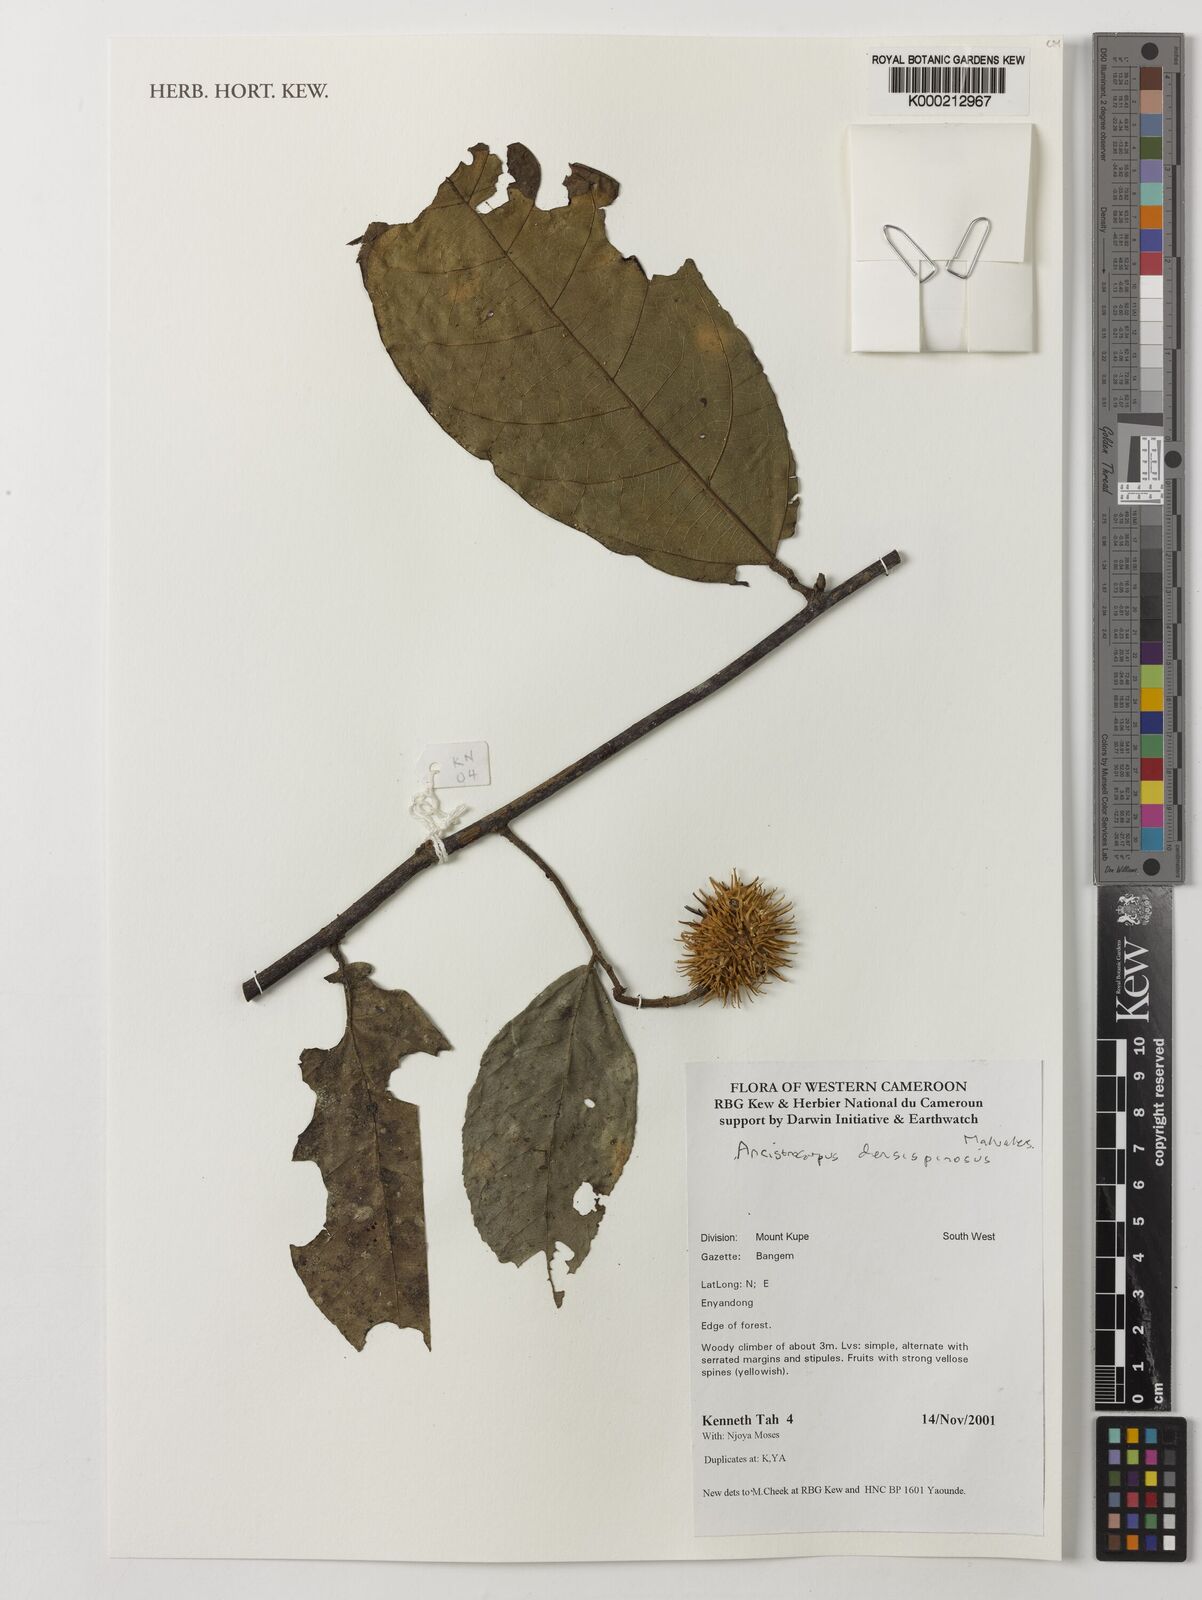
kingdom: Plantae
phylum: Tracheophyta
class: Magnoliopsida
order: Malvales
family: Malvaceae
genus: Ancistrocarpus
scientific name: Ancistrocarpus densispinosus
